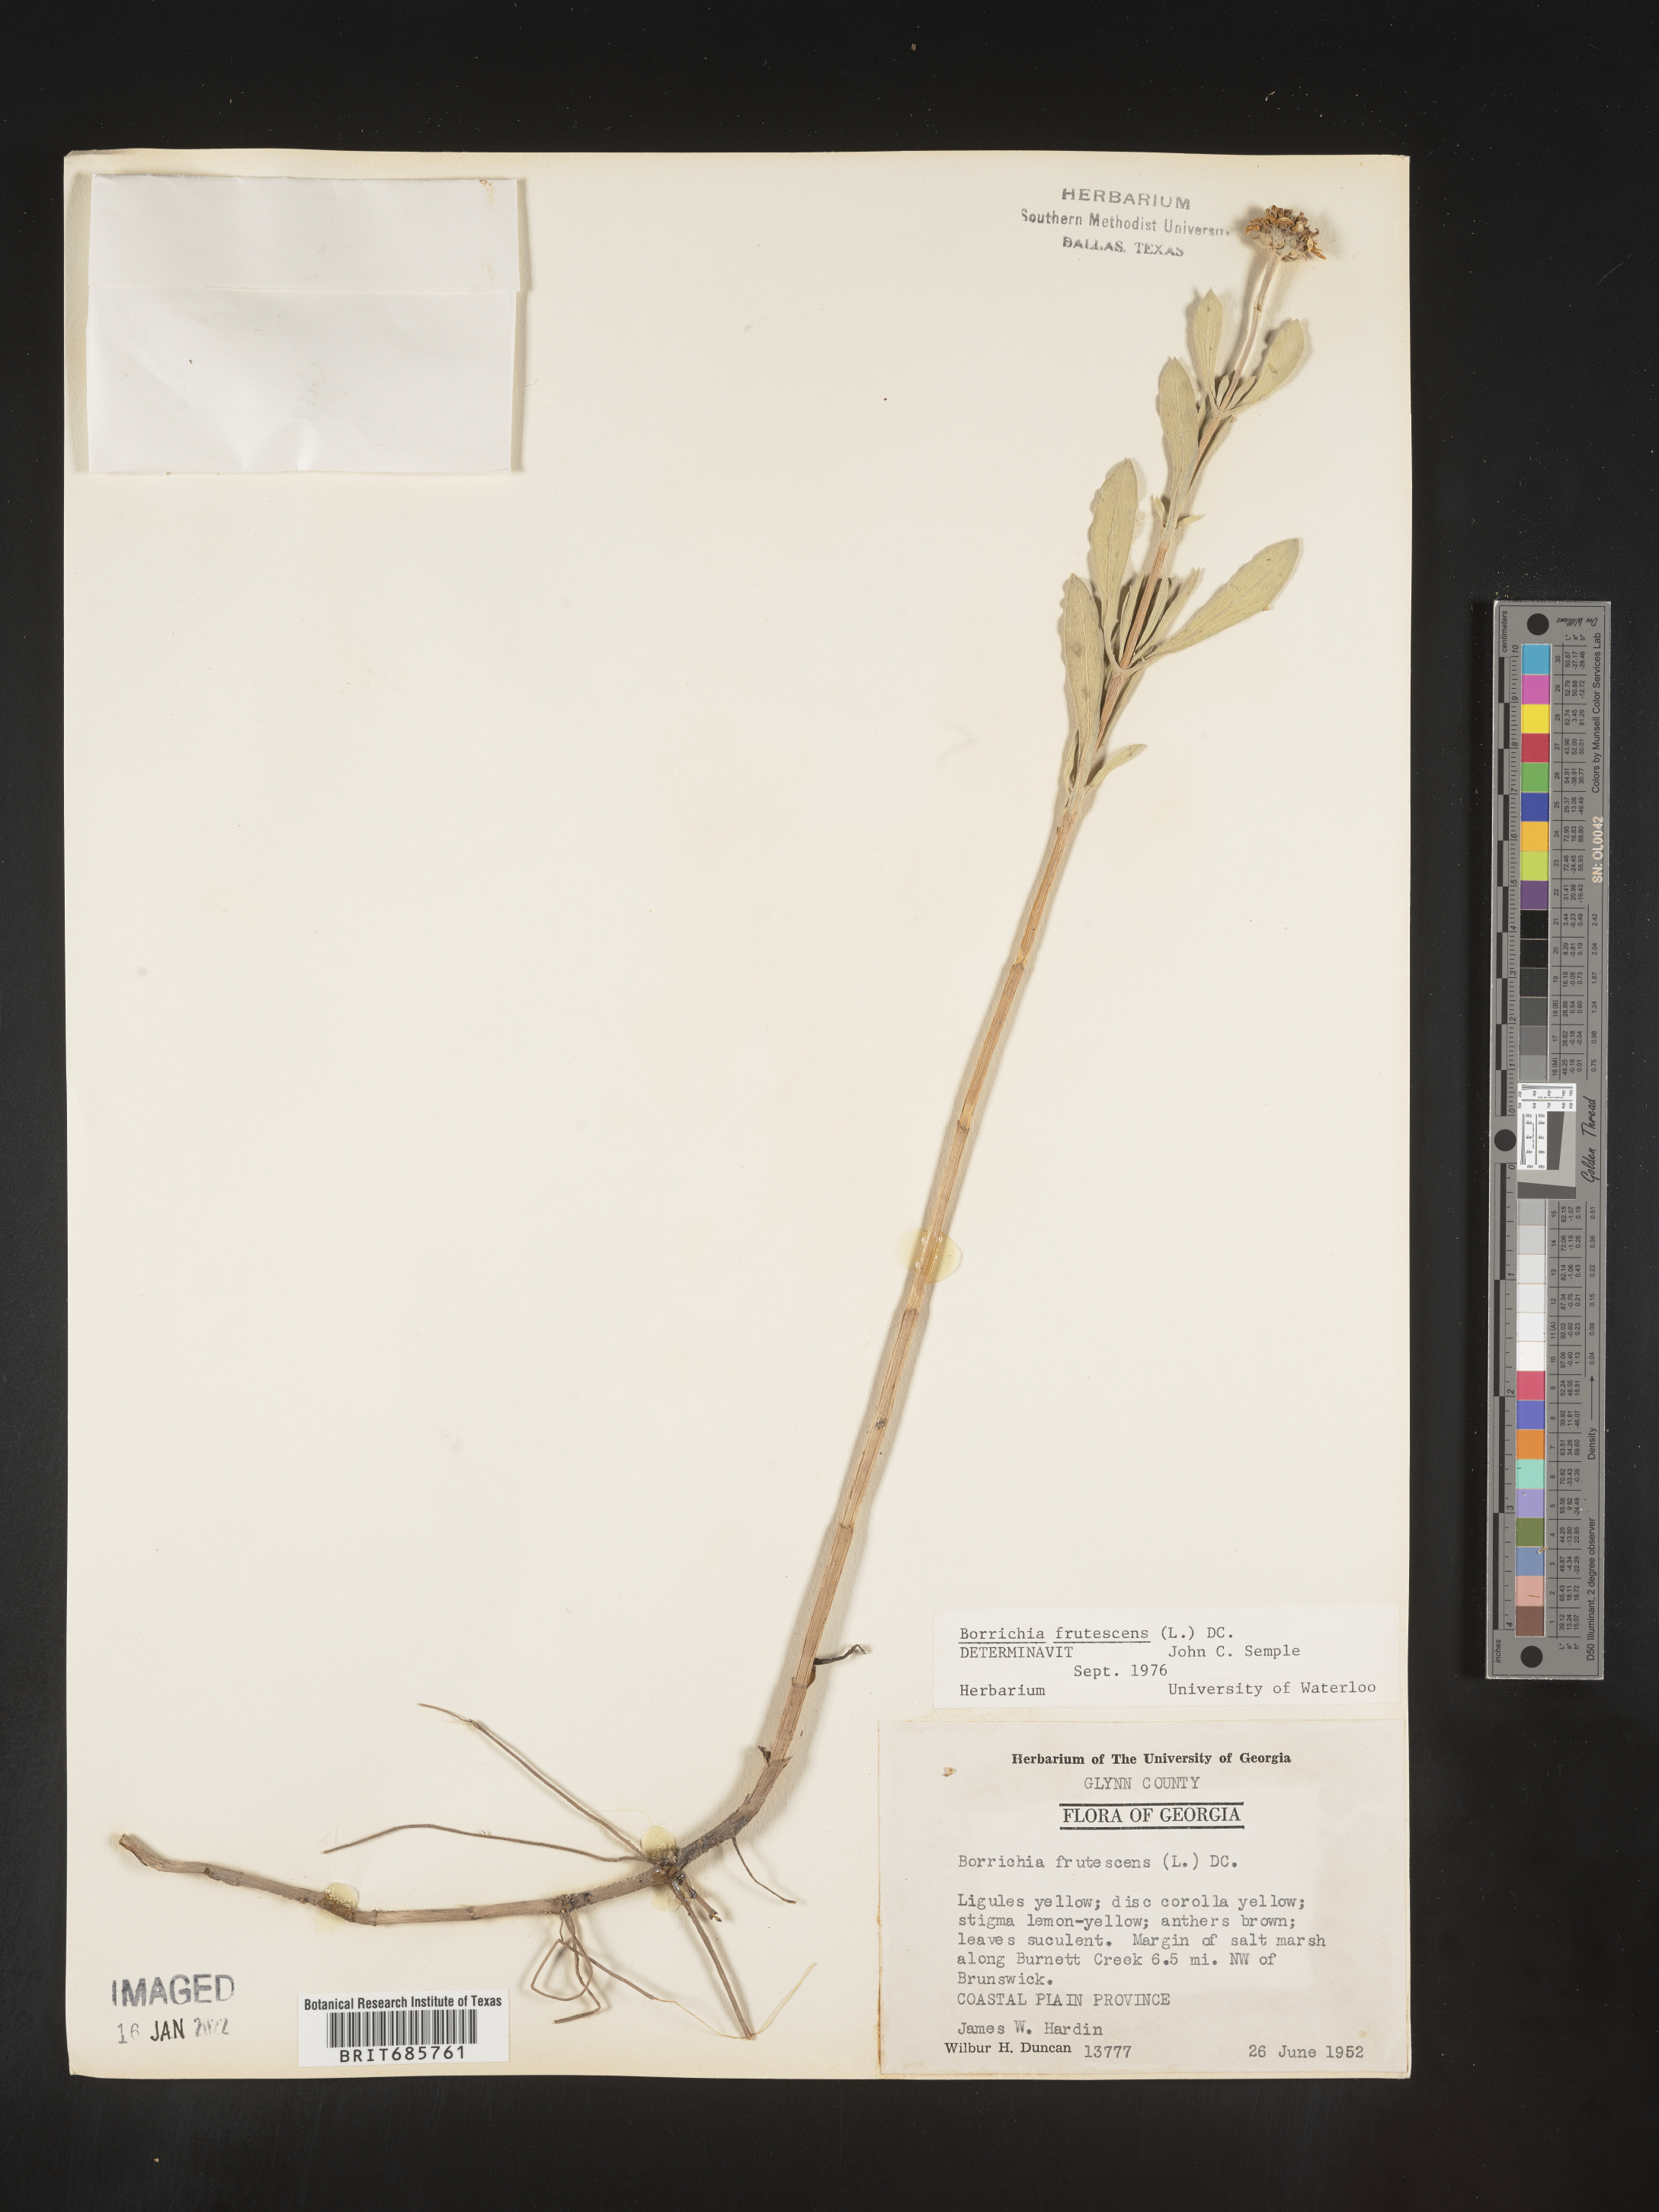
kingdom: Plantae
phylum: Tracheophyta
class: Magnoliopsida
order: Asterales
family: Asteraceae
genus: Borrichia
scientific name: Borrichia frutescens
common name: Sea oxeye
